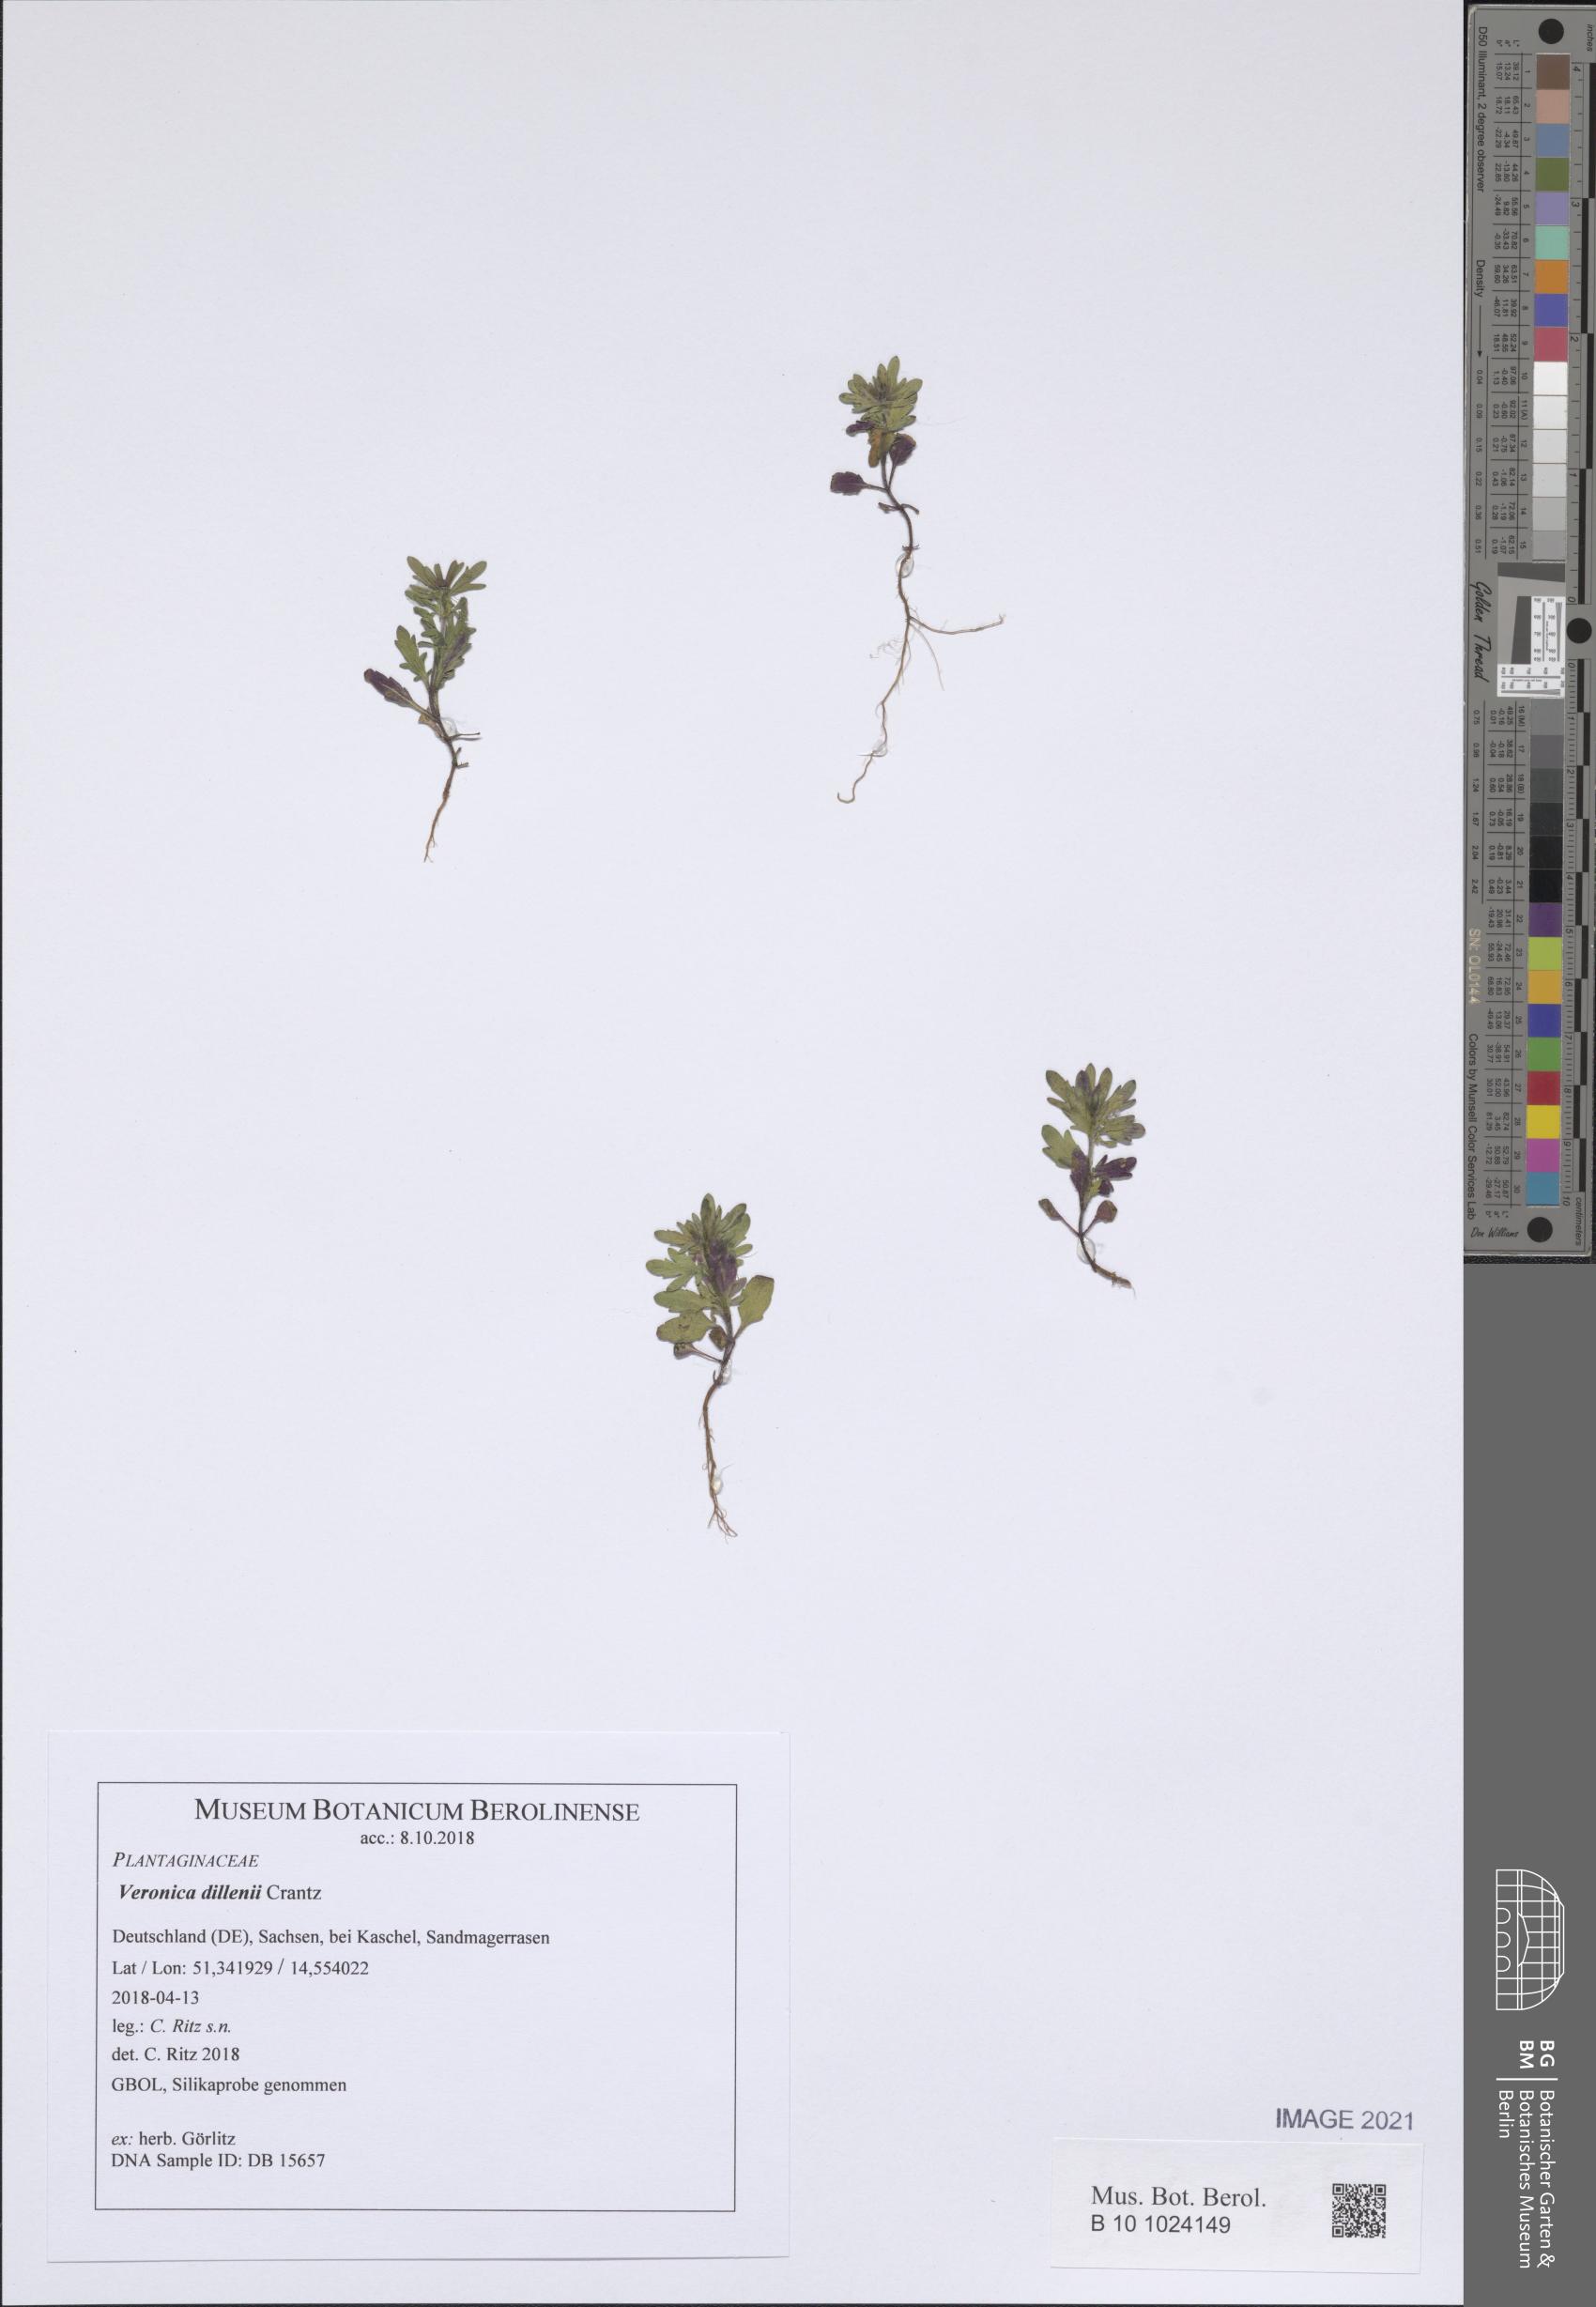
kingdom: Plantae
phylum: Tracheophyta
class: Magnoliopsida
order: Lamiales
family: Plantaginaceae
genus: Veronica
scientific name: Veronica dillenii
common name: Dillenius' speedwell
